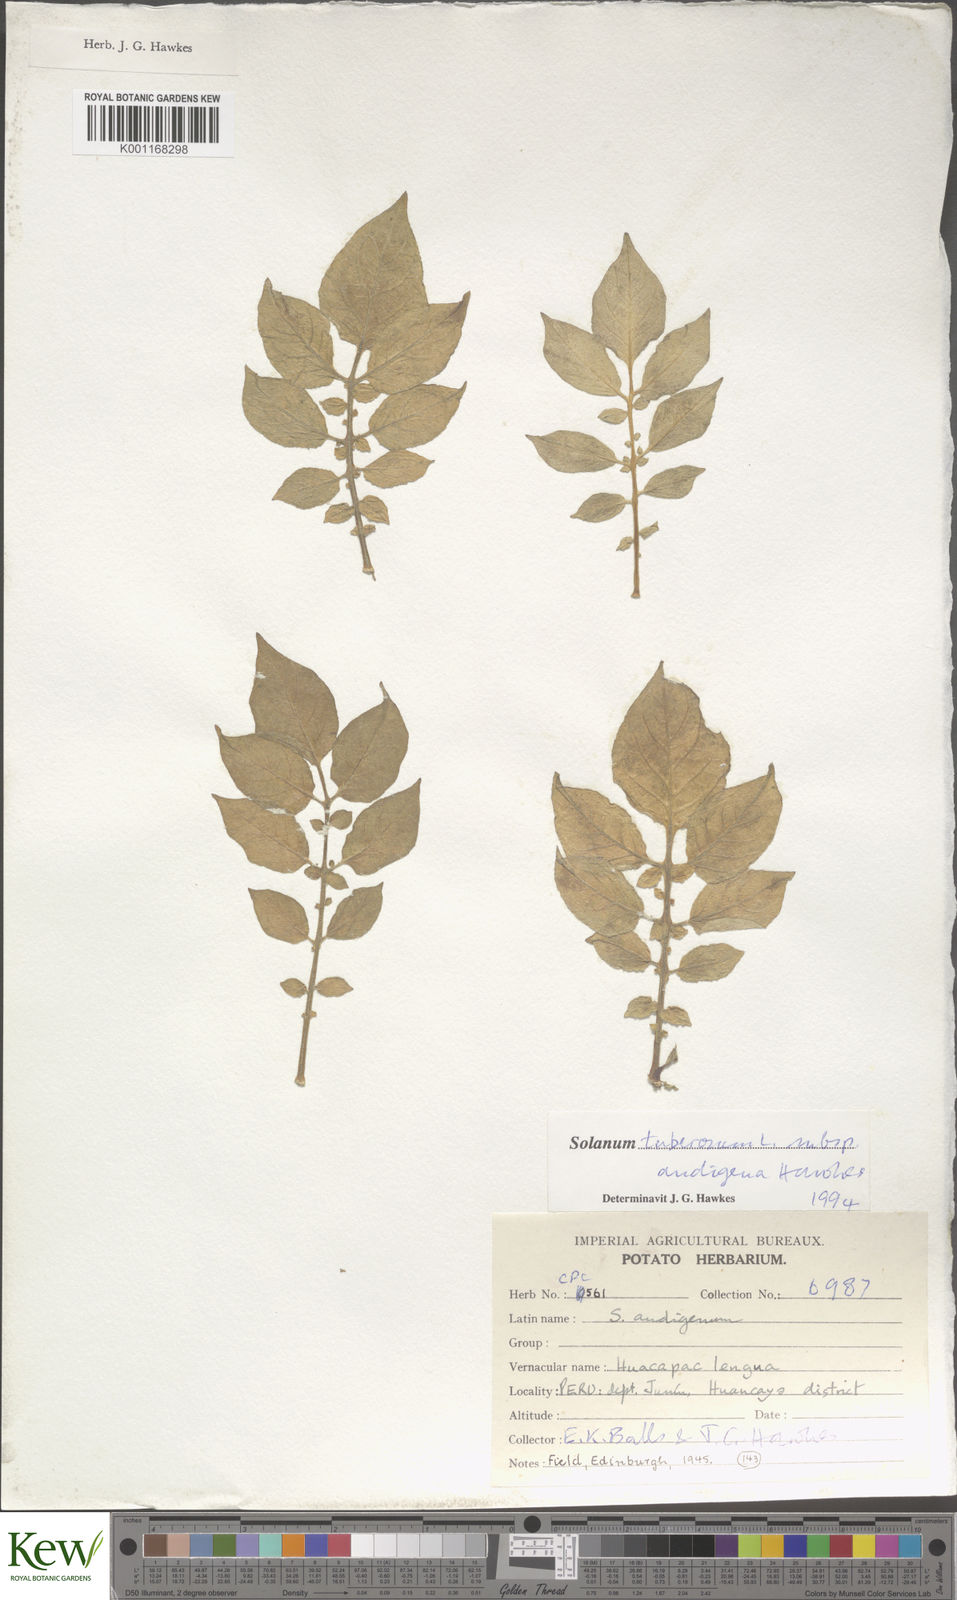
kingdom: Plantae
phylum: Tracheophyta
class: Magnoliopsida
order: Solanales
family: Solanaceae
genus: Solanum
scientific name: Solanum tuberosum
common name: Potato
